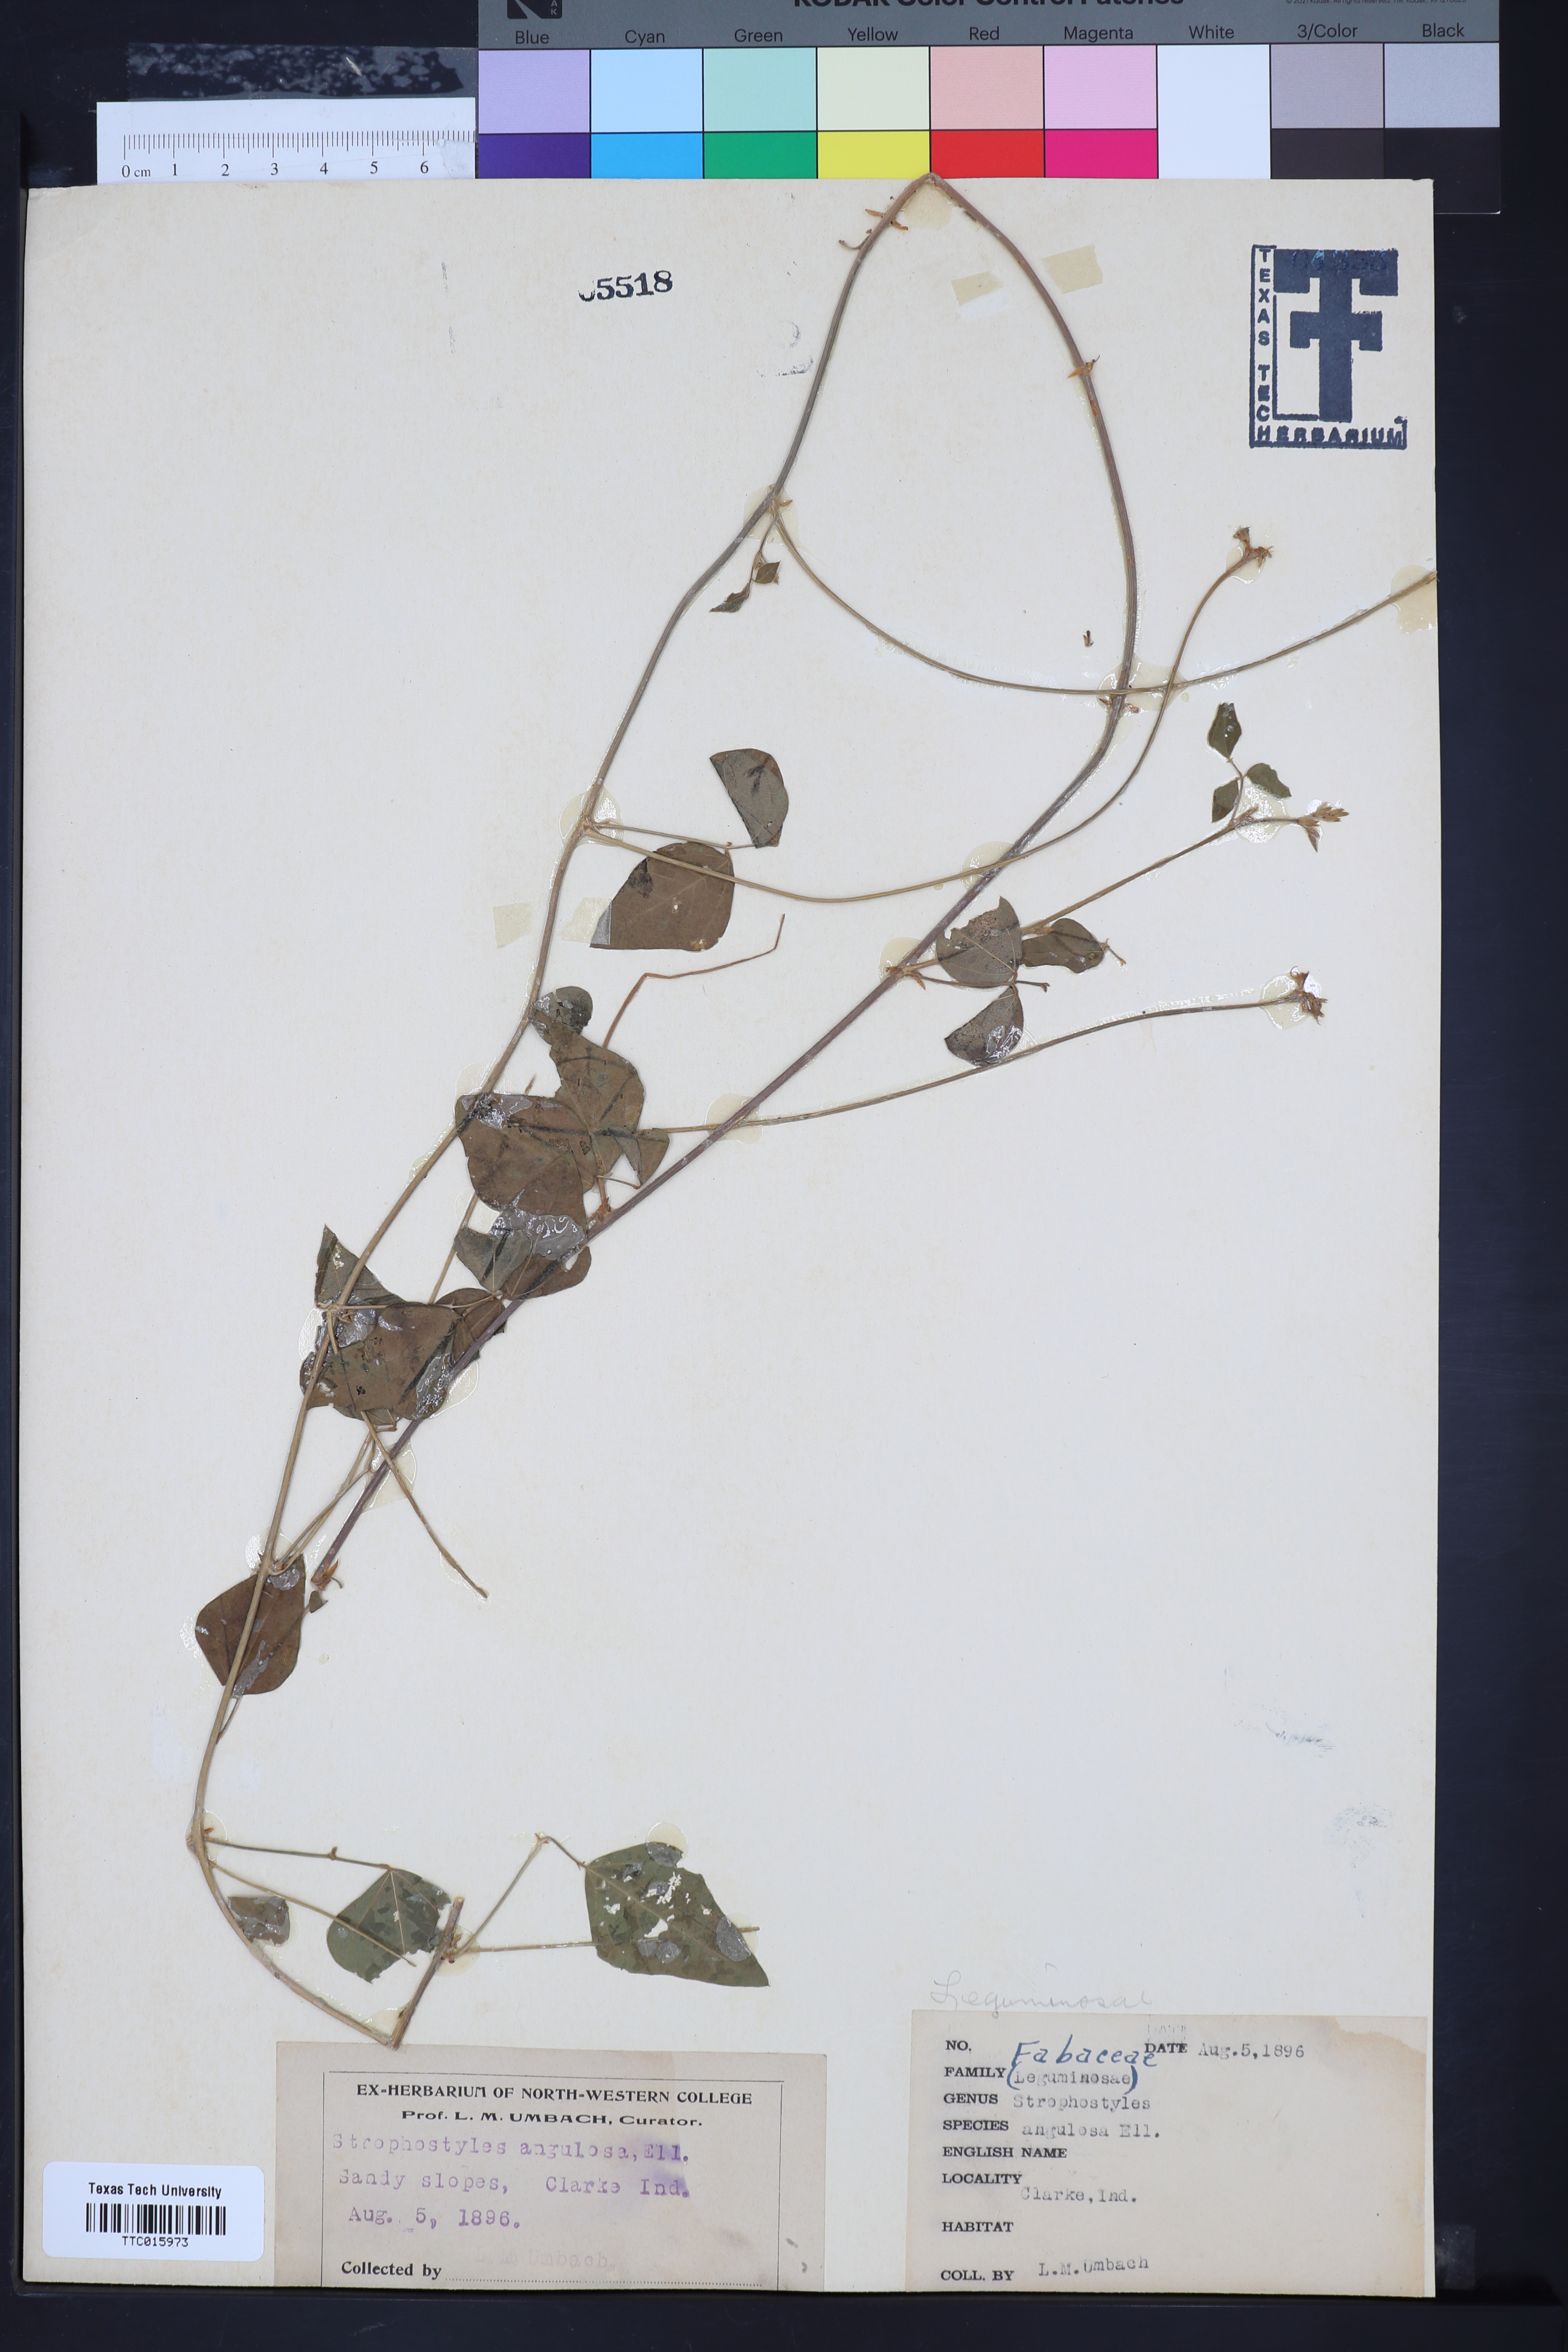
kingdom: Plantae
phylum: Tracheophyta
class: Magnoliopsida
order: Fabales
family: Fabaceae
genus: Strophostyles
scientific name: Strophostyles helvola
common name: Trailing wild bean
